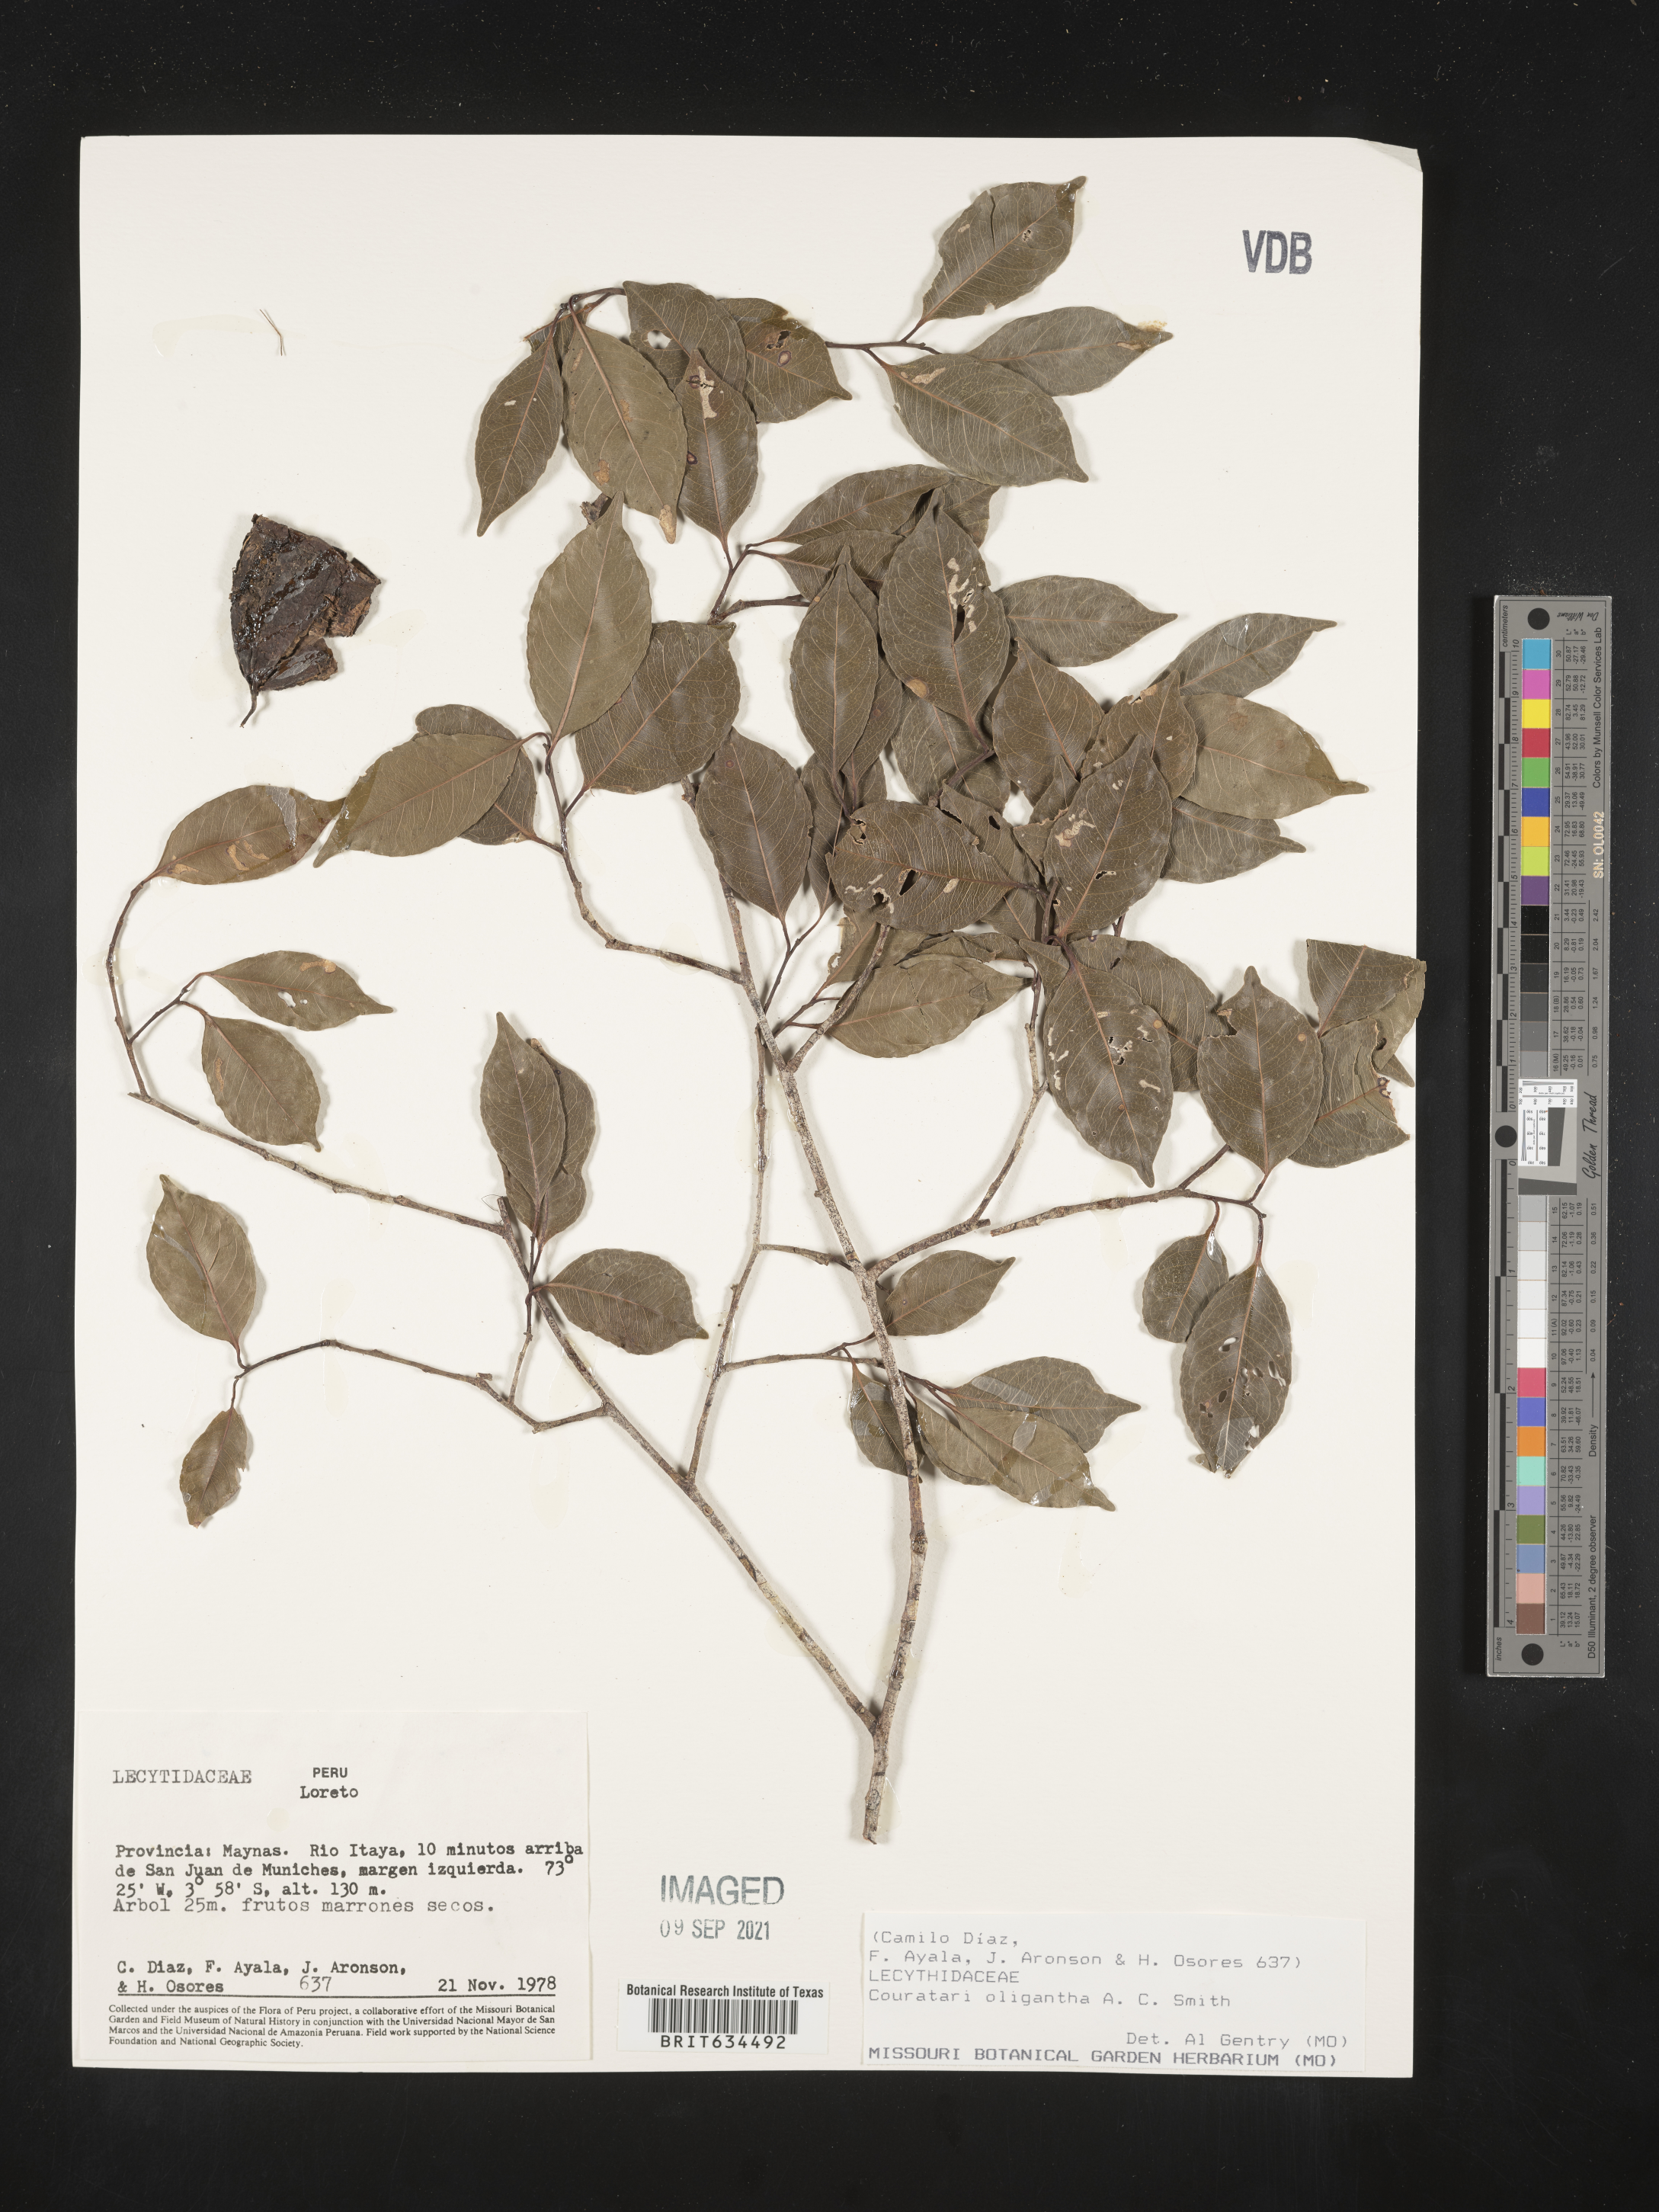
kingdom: Plantae
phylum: Tracheophyta
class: Magnoliopsida
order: Ericales
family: Lecythidaceae
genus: Couratari
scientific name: Couratari
